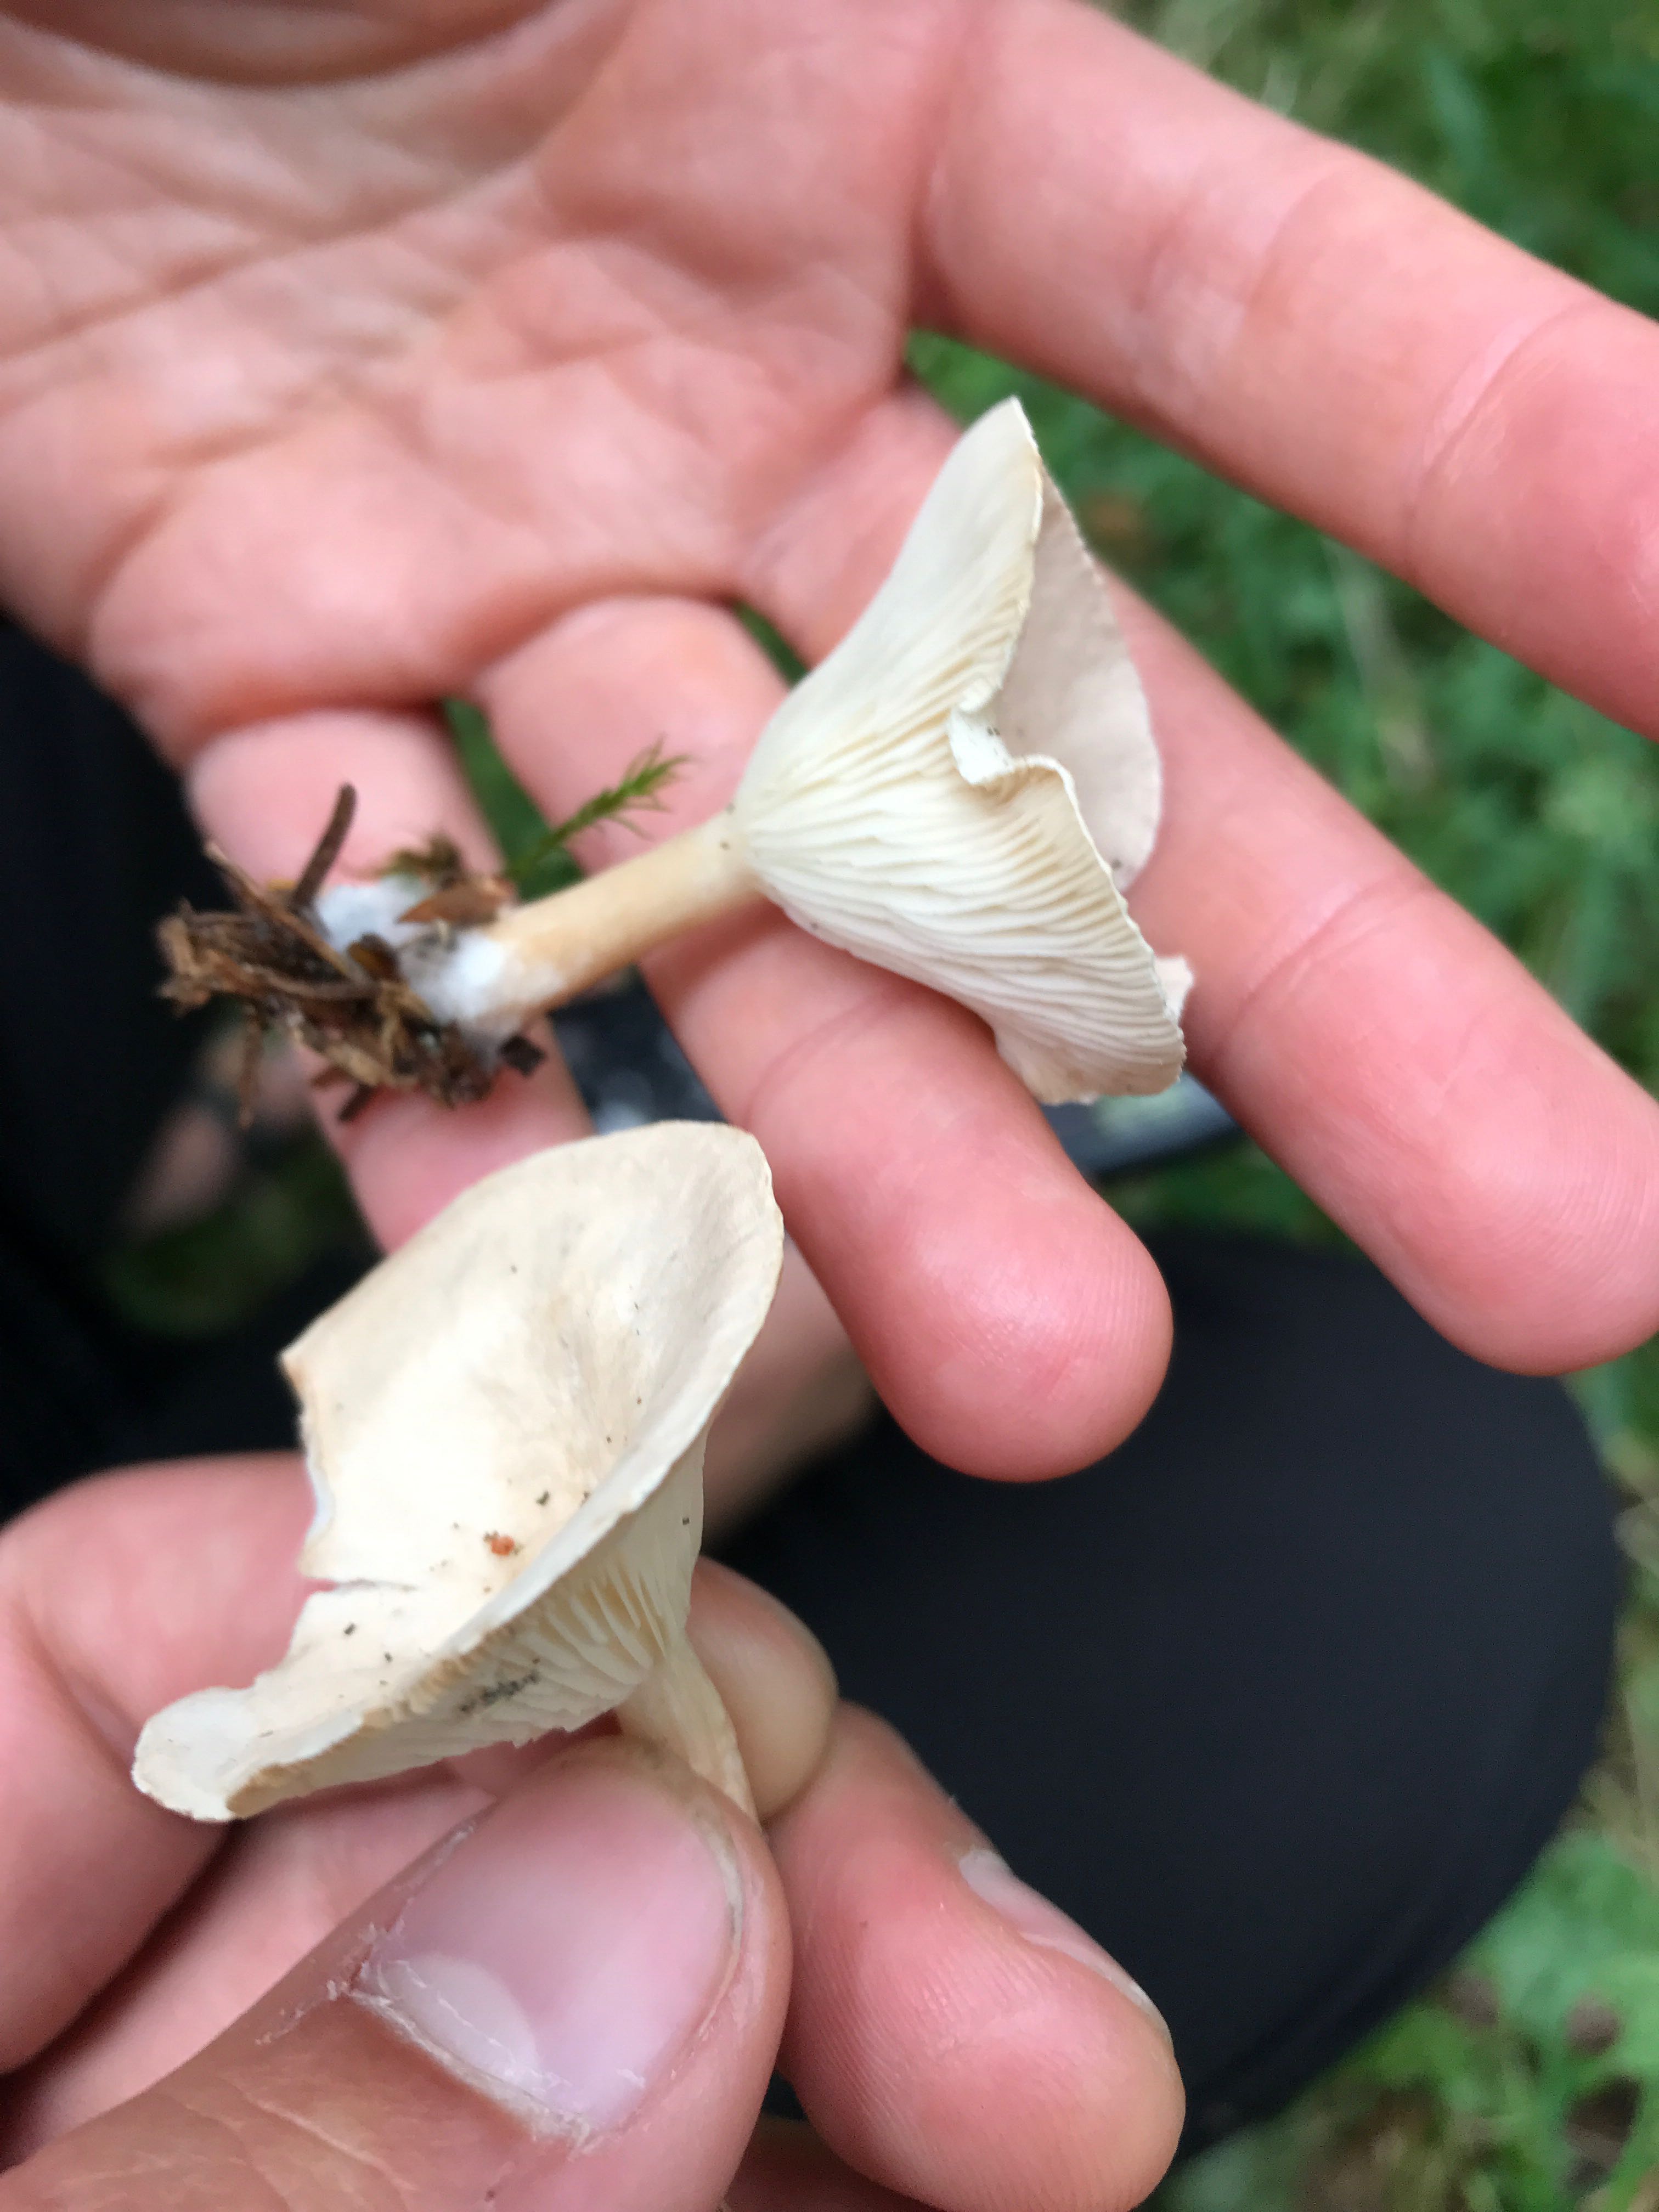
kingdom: Fungi
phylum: Basidiomycota
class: Agaricomycetes
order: Agaricales
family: Tricholomataceae
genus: Infundibulicybe
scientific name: Infundibulicybe gibba
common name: almindelig tragthat
